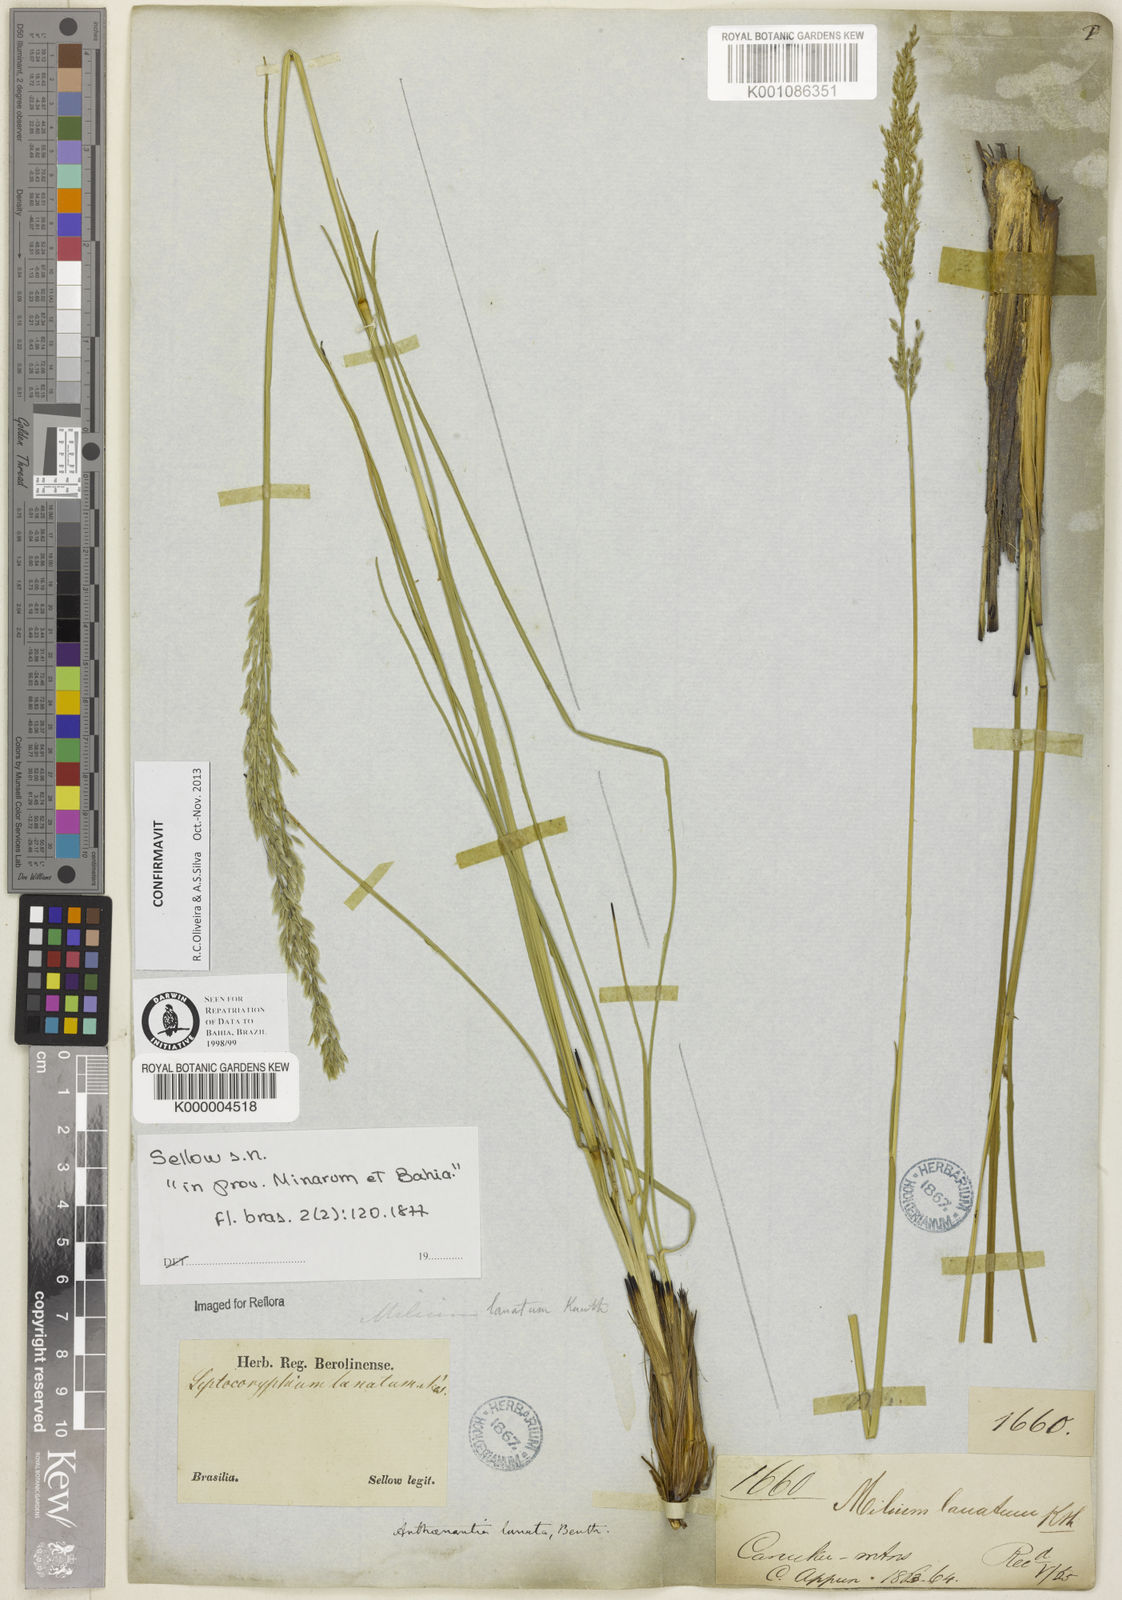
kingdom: Plantae
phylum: Tracheophyta
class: Liliopsida
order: Poales
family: Poaceae
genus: Anthenantia
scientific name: Anthenantia lanata
